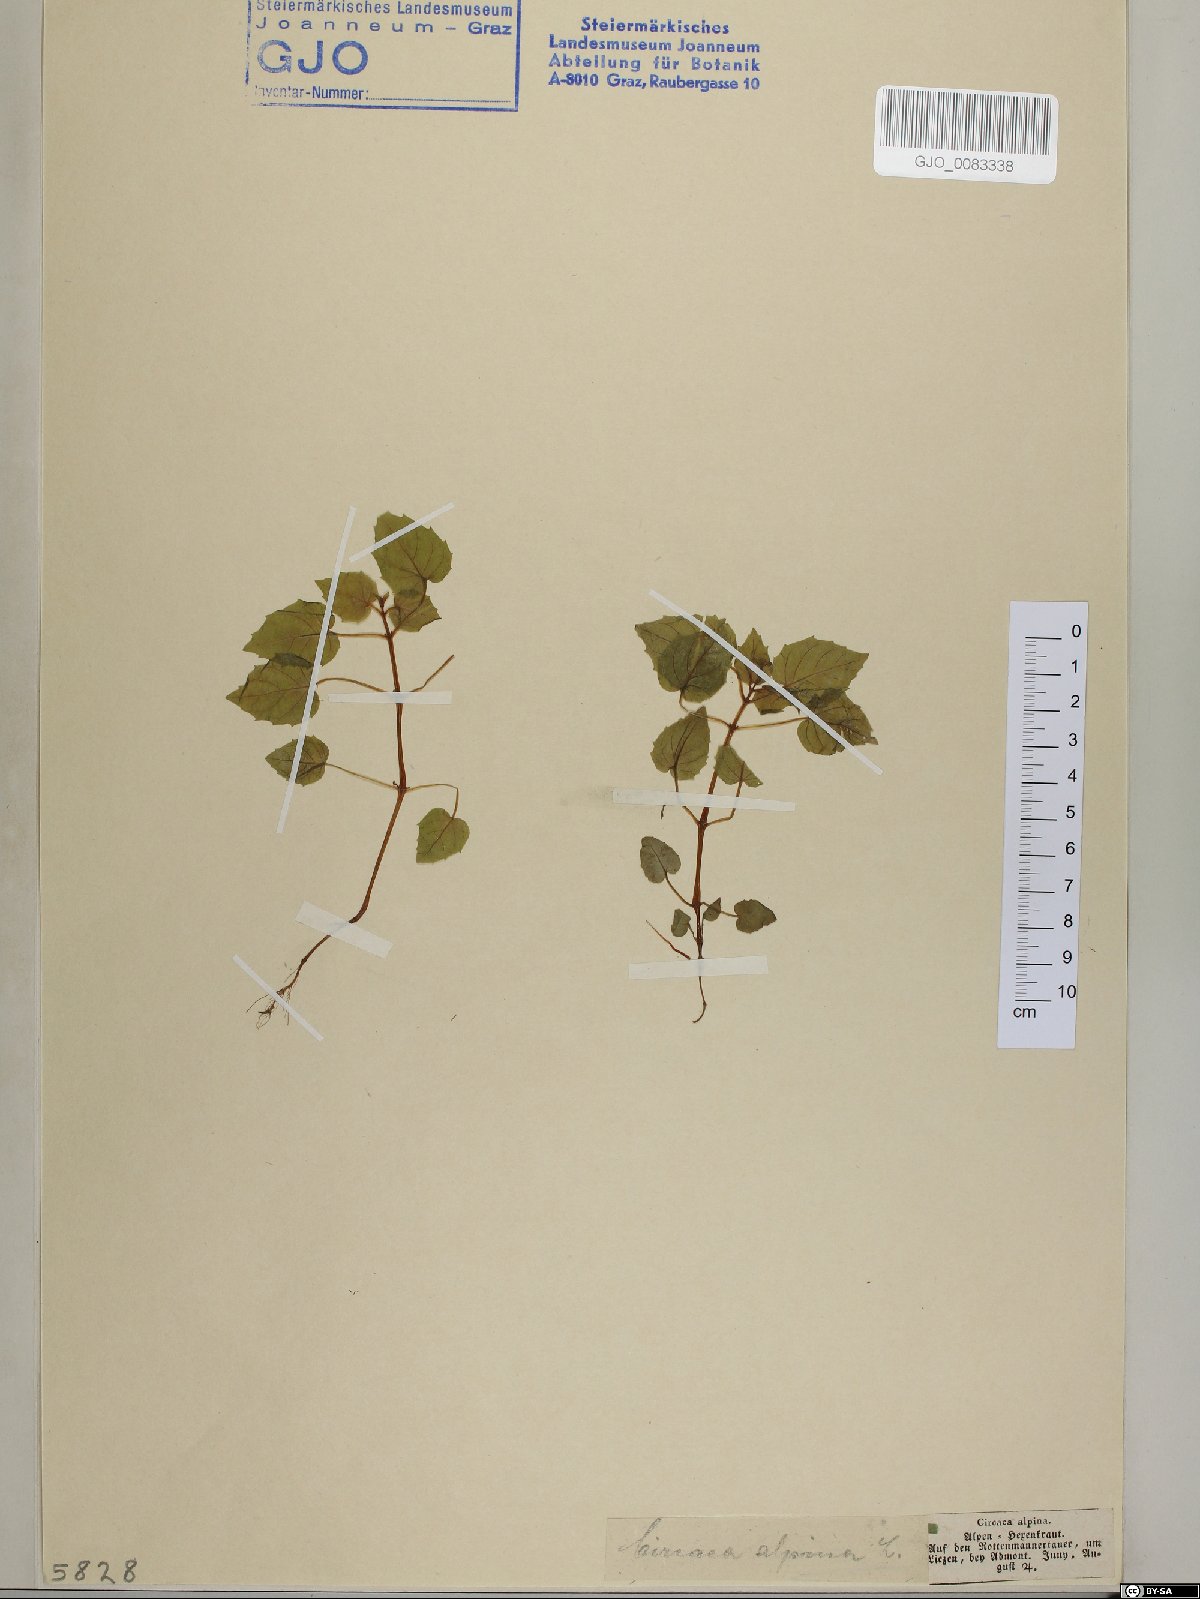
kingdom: Plantae
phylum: Tracheophyta
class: Magnoliopsida
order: Myrtales
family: Onagraceae
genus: Circaea
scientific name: Circaea alpina
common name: Alpine enchanter's-nightshade
